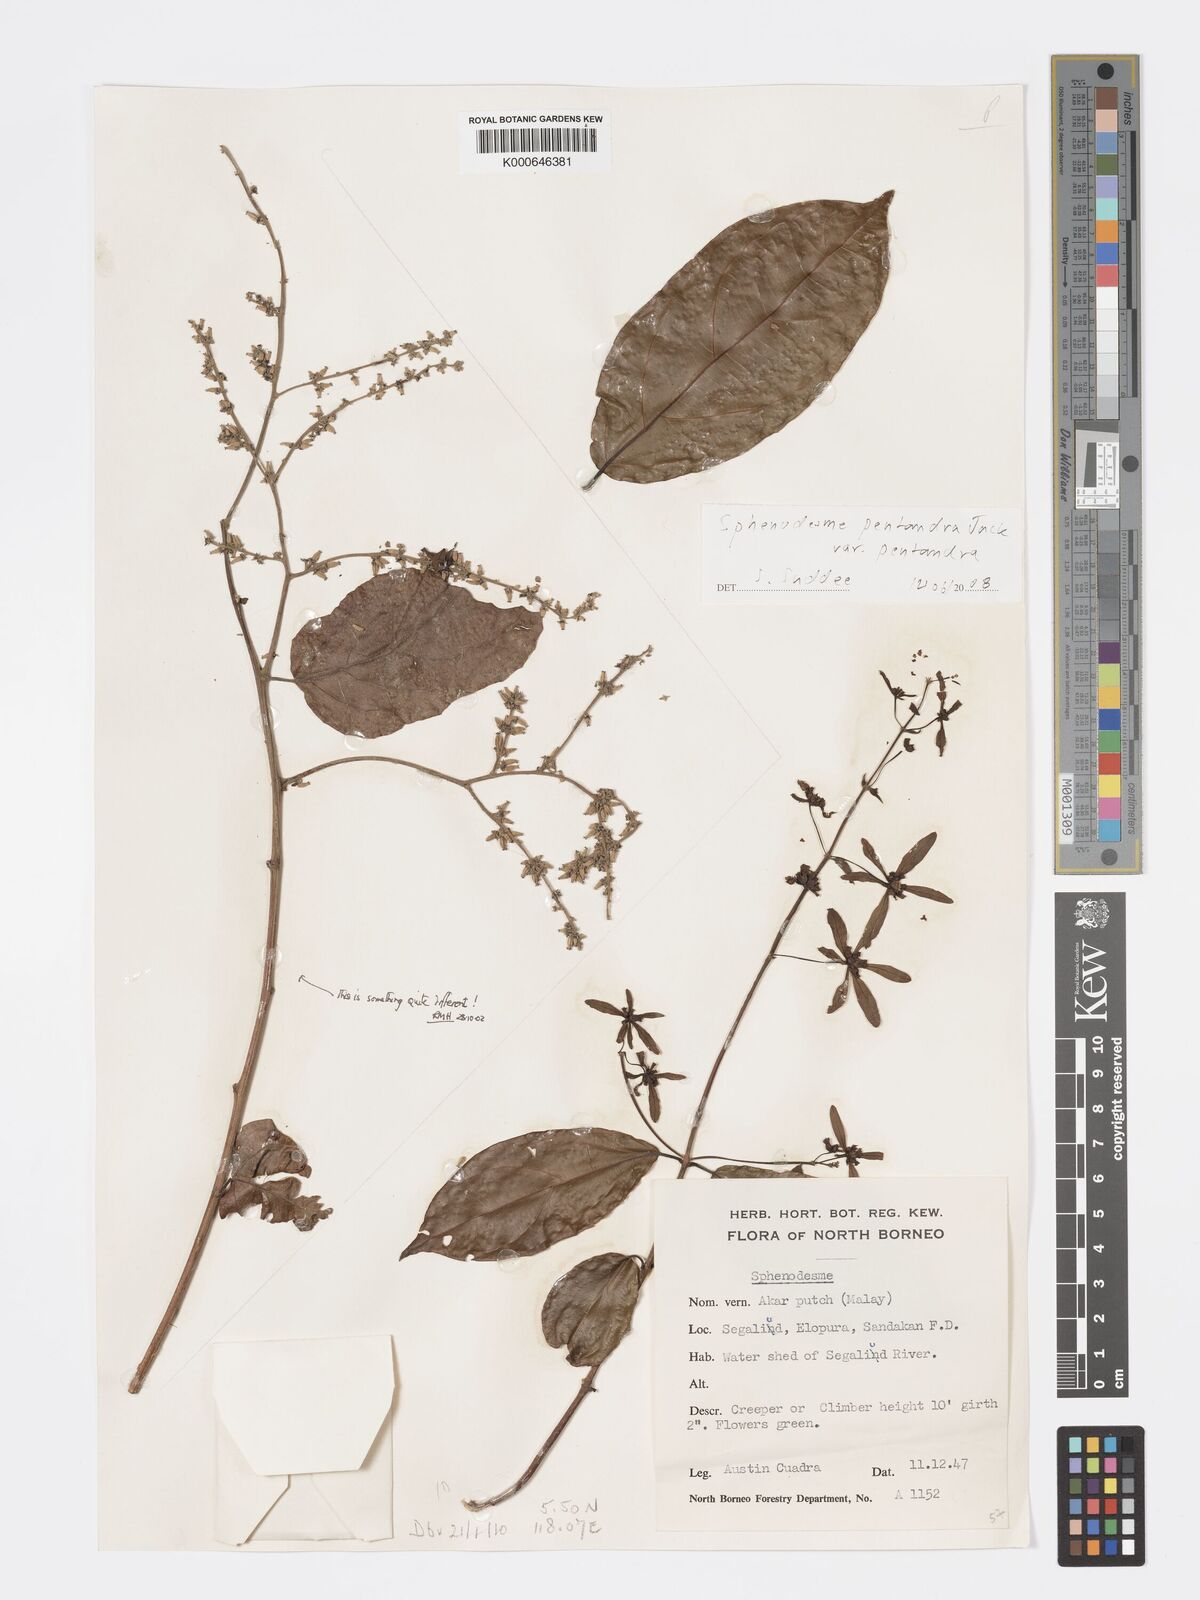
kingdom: Plantae
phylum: Tracheophyta
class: Magnoliopsida
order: Lamiales
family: Lamiaceae
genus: Sphenodesme
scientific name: Sphenodesme pentandra
